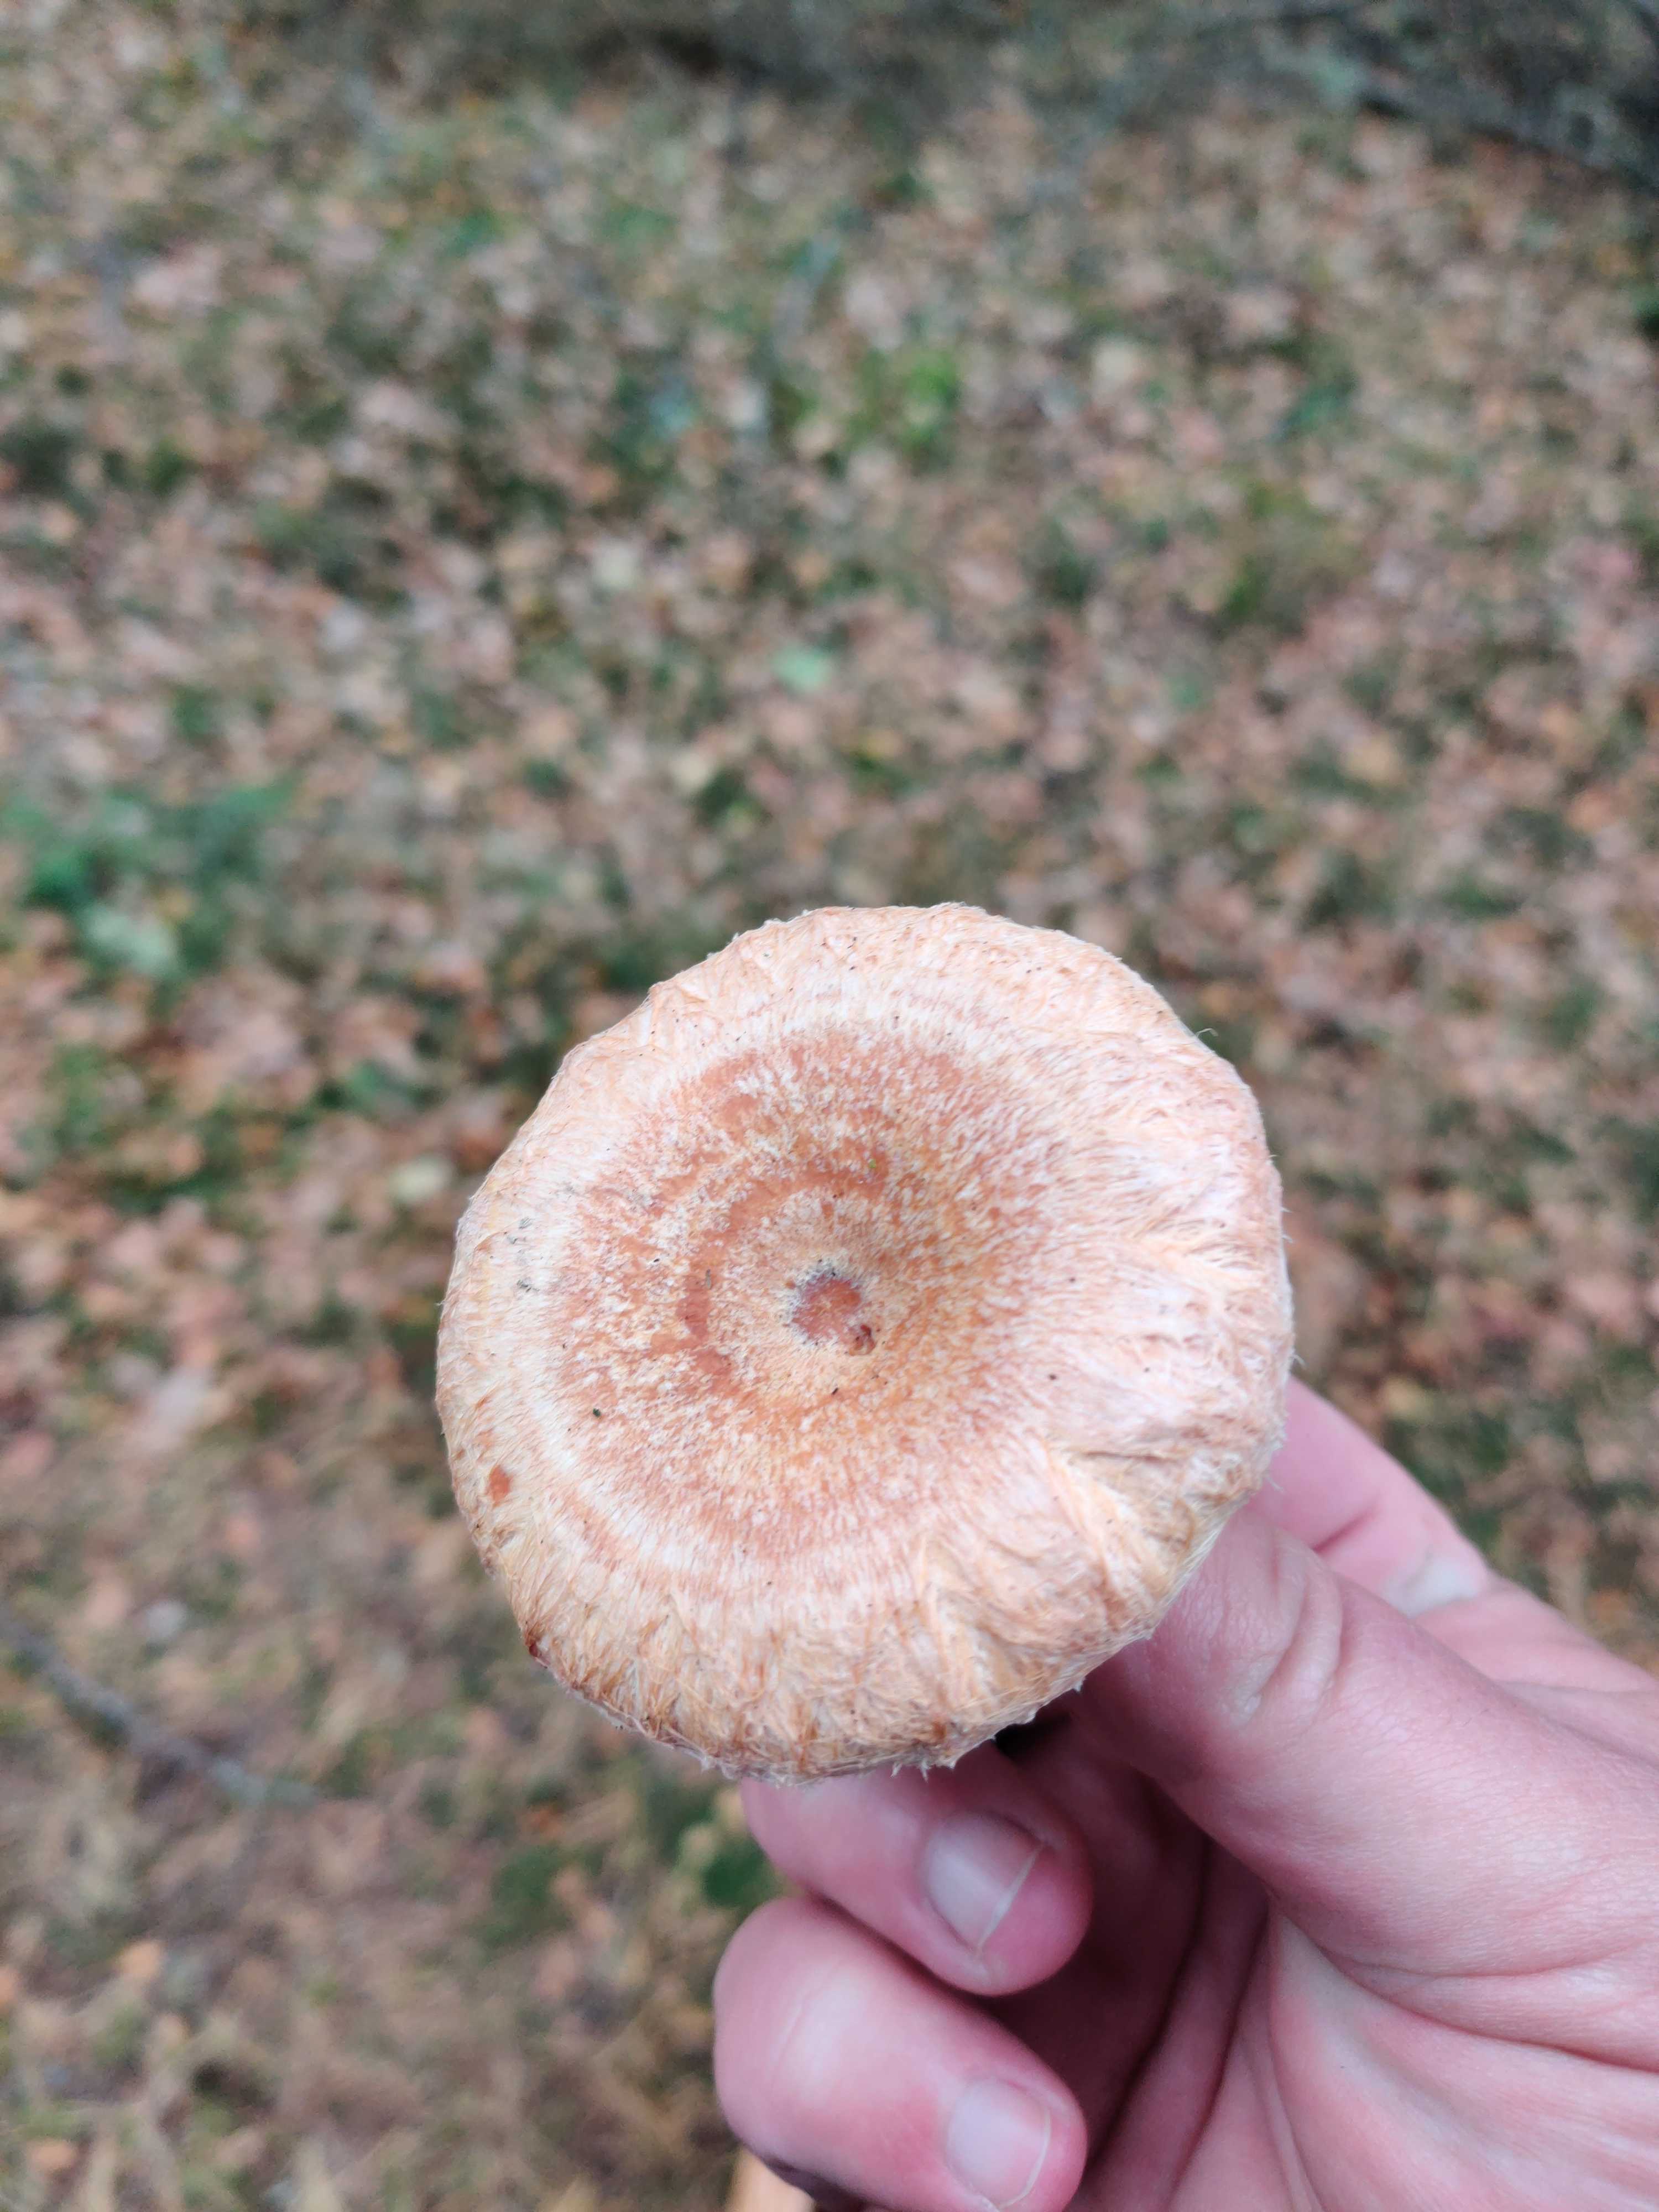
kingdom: Fungi
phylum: Basidiomycota
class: Agaricomycetes
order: Russulales
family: Russulaceae
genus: Lactarius
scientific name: Lactarius torminosus
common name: skægget mælkehat
